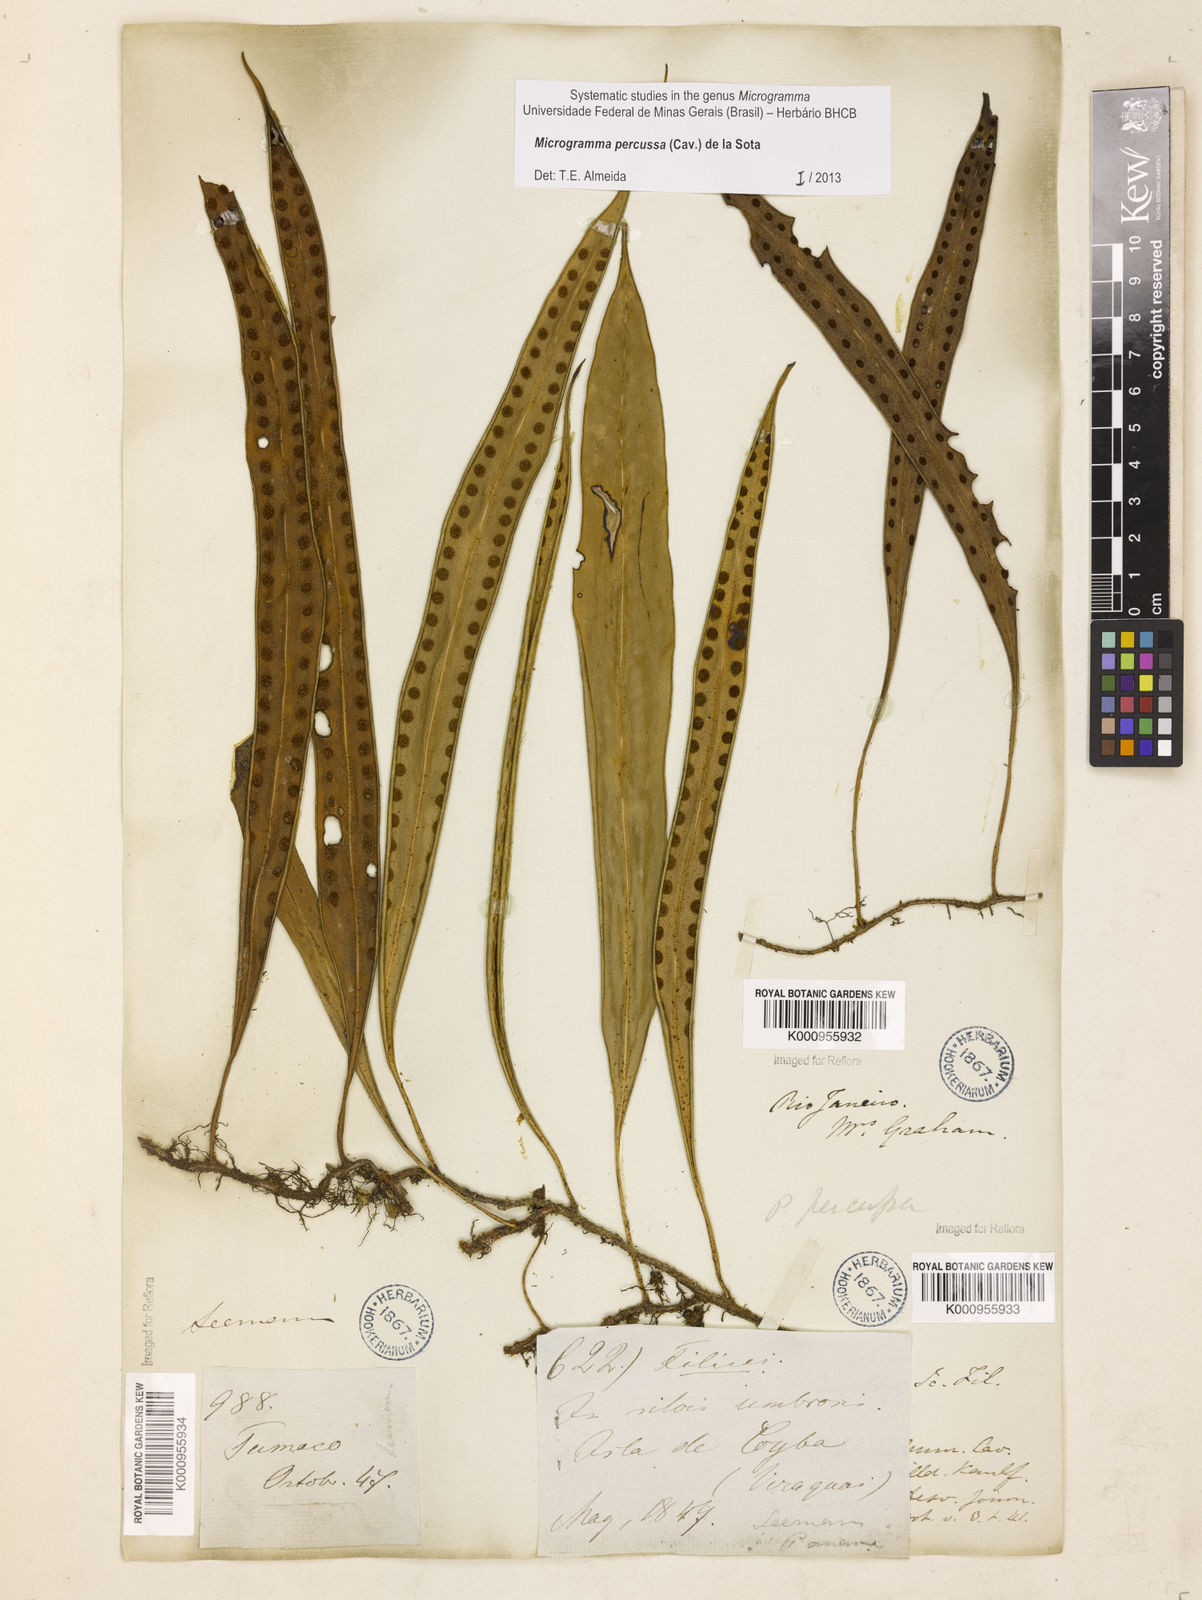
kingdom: Plantae
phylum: Tracheophyta
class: Polypodiopsida
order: Polypodiales
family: Polypodiaceae
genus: Microgramma
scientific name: Microgramma percussa
